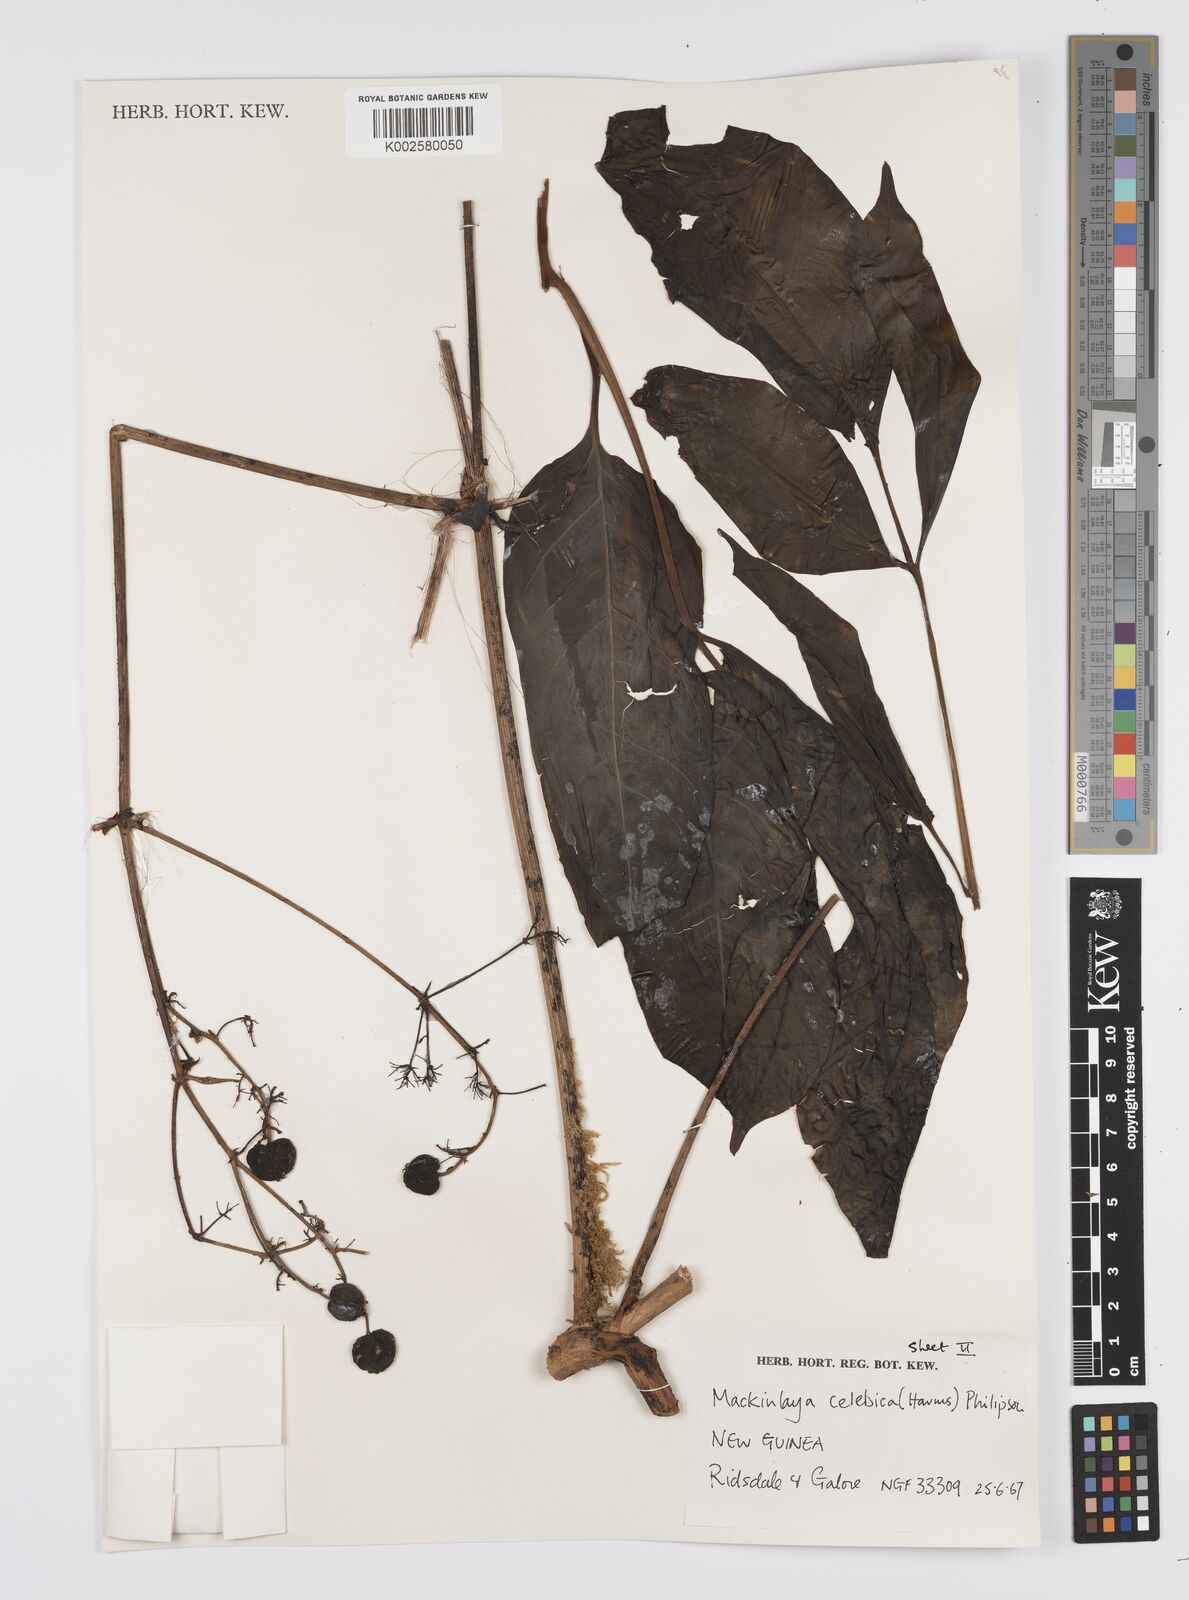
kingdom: Plantae
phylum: Tracheophyta
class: Magnoliopsida
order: Apiales
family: Apiaceae
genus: Mackinlaya
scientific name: Mackinlaya celebica
